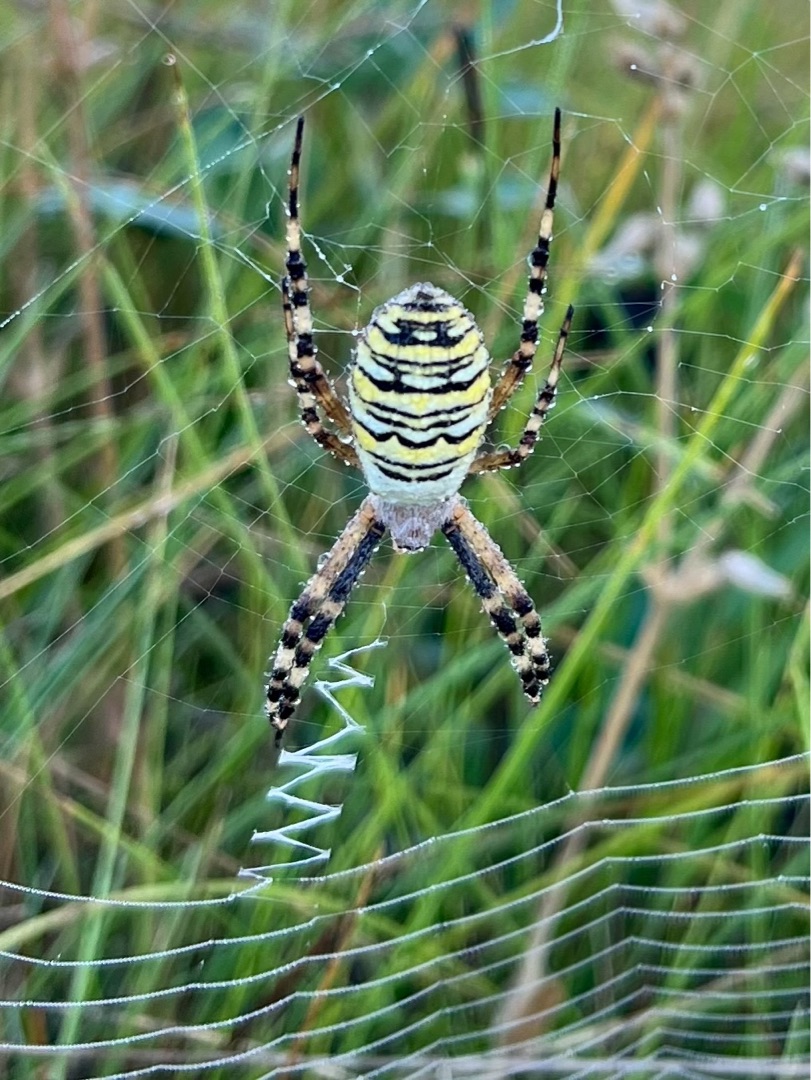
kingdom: Animalia
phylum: Arthropoda
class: Arachnida
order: Araneae
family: Araneidae
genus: Argiope
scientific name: Argiope bruennichi
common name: Hvepseedderkop
